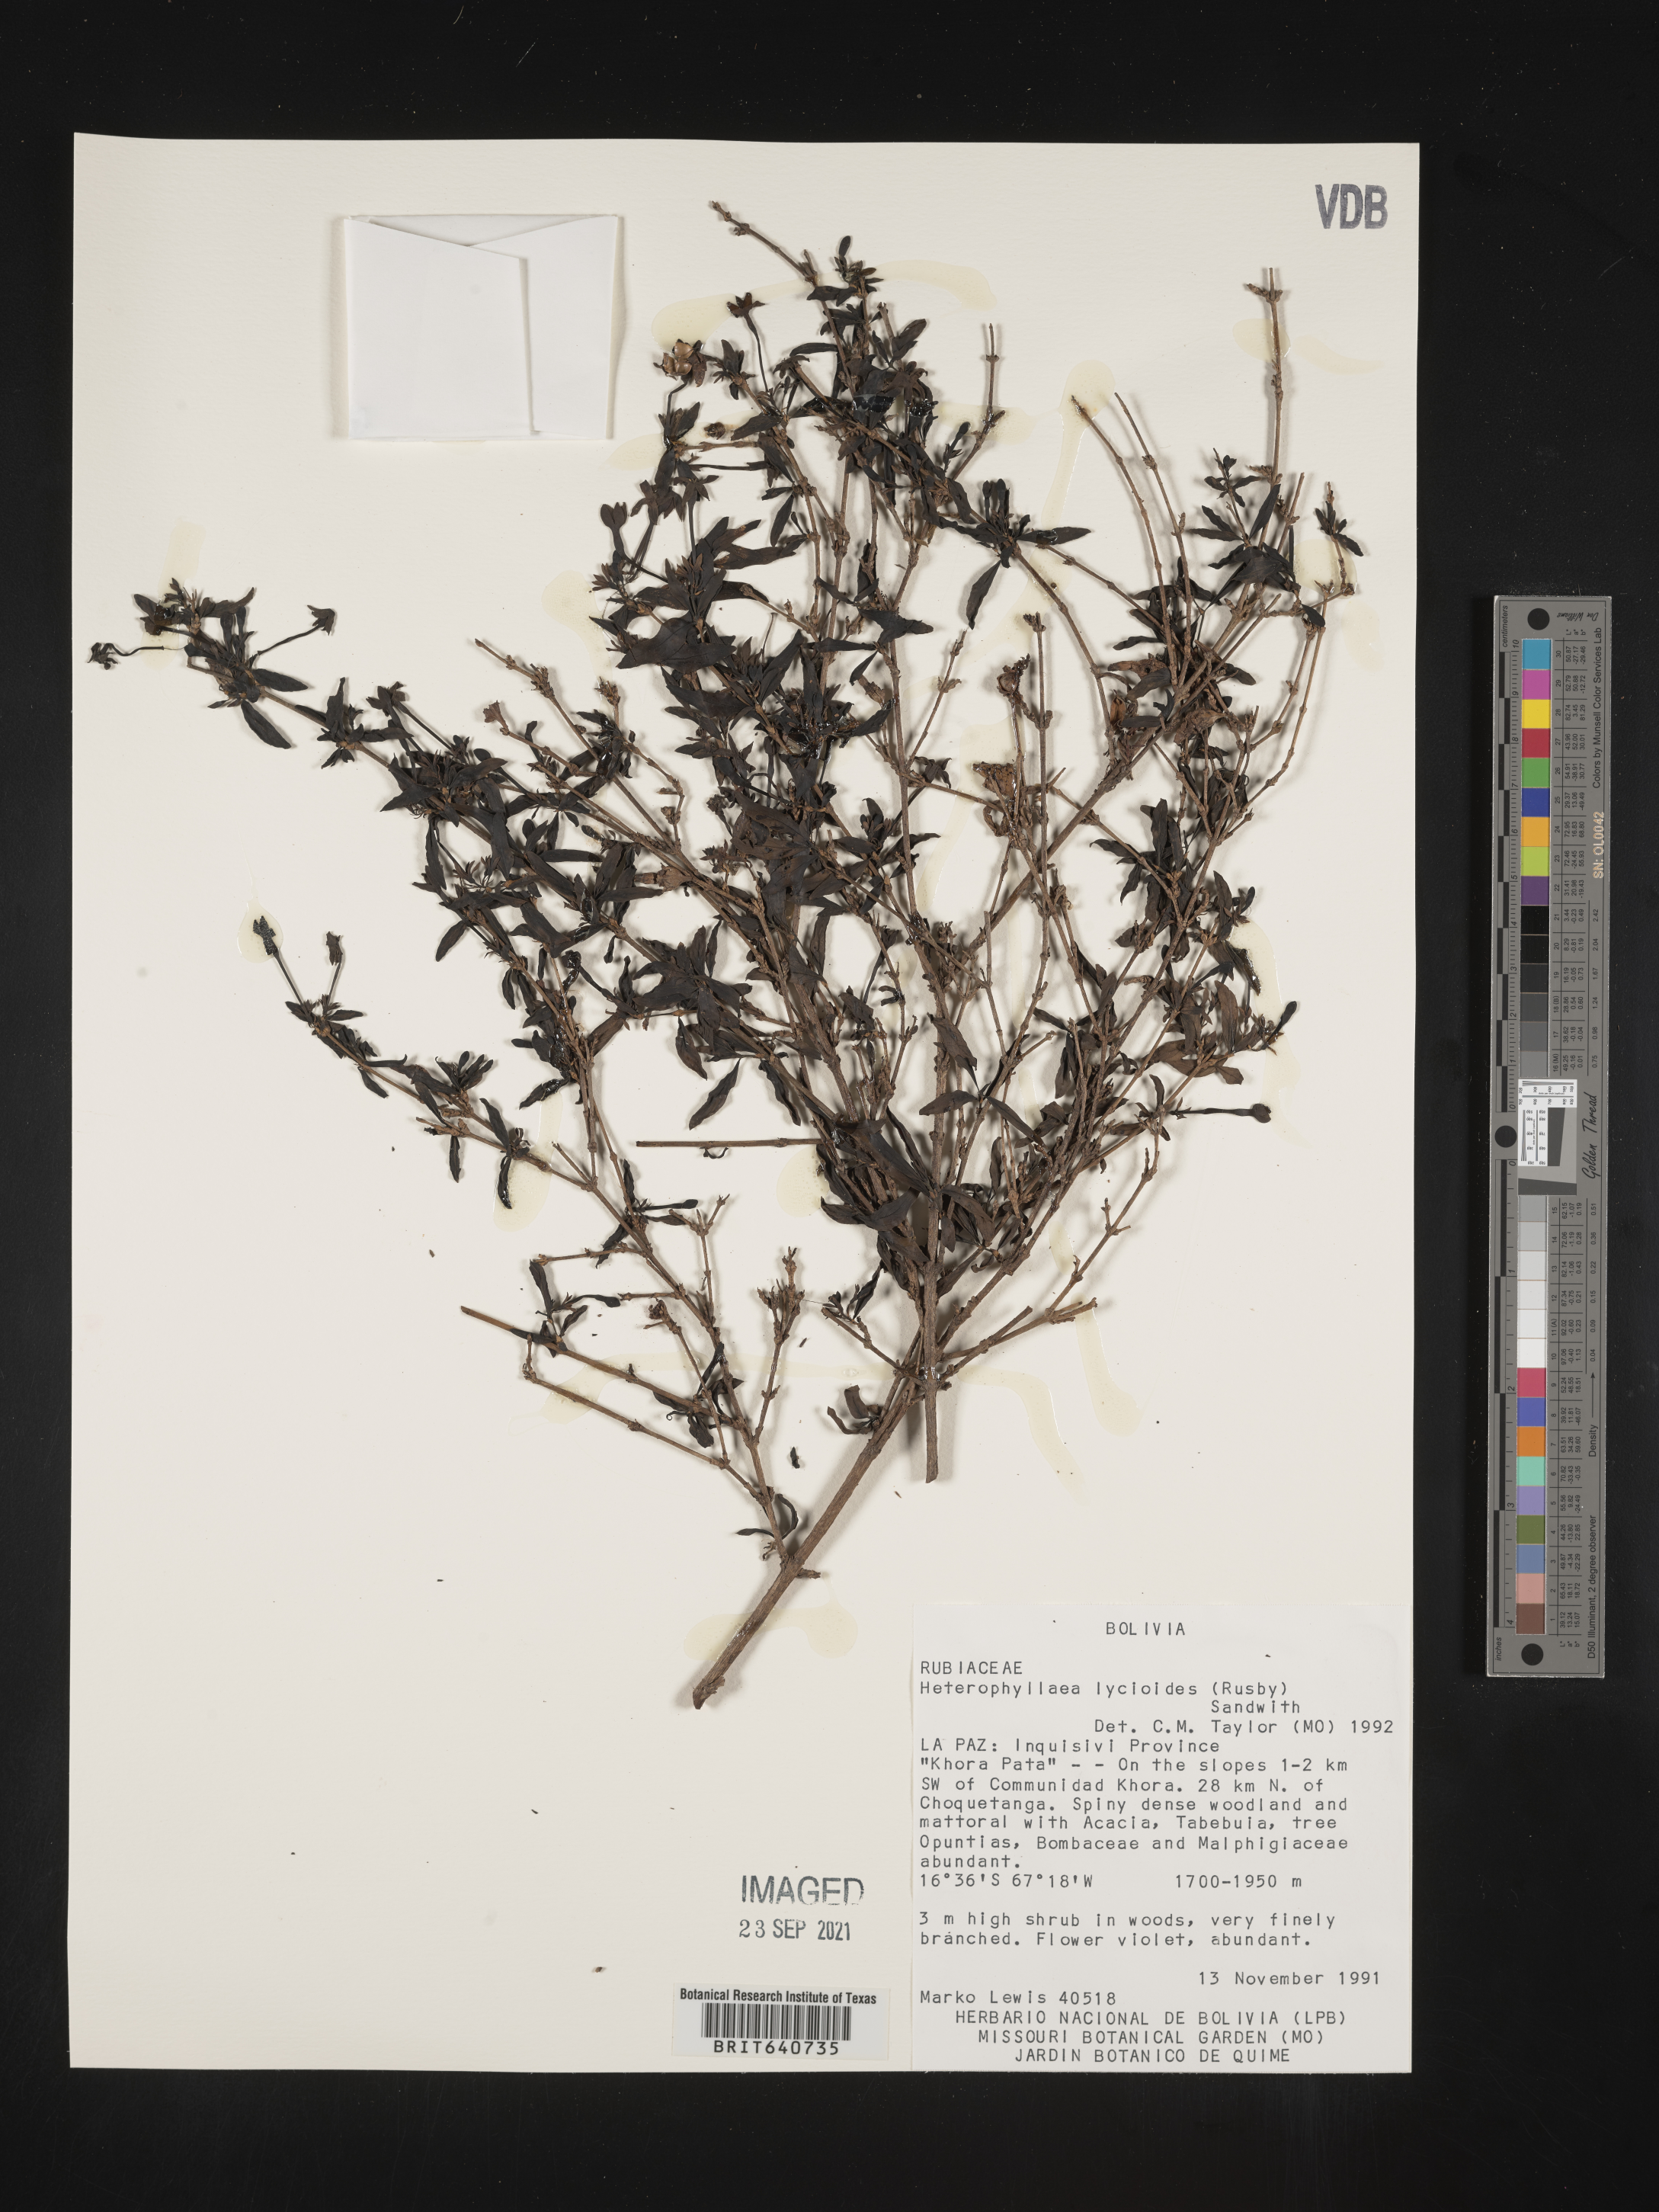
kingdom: Plantae
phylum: Tracheophyta
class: Magnoliopsida
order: Gentianales
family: Rubiaceae
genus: Heterophyllaea
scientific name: Heterophyllaea
